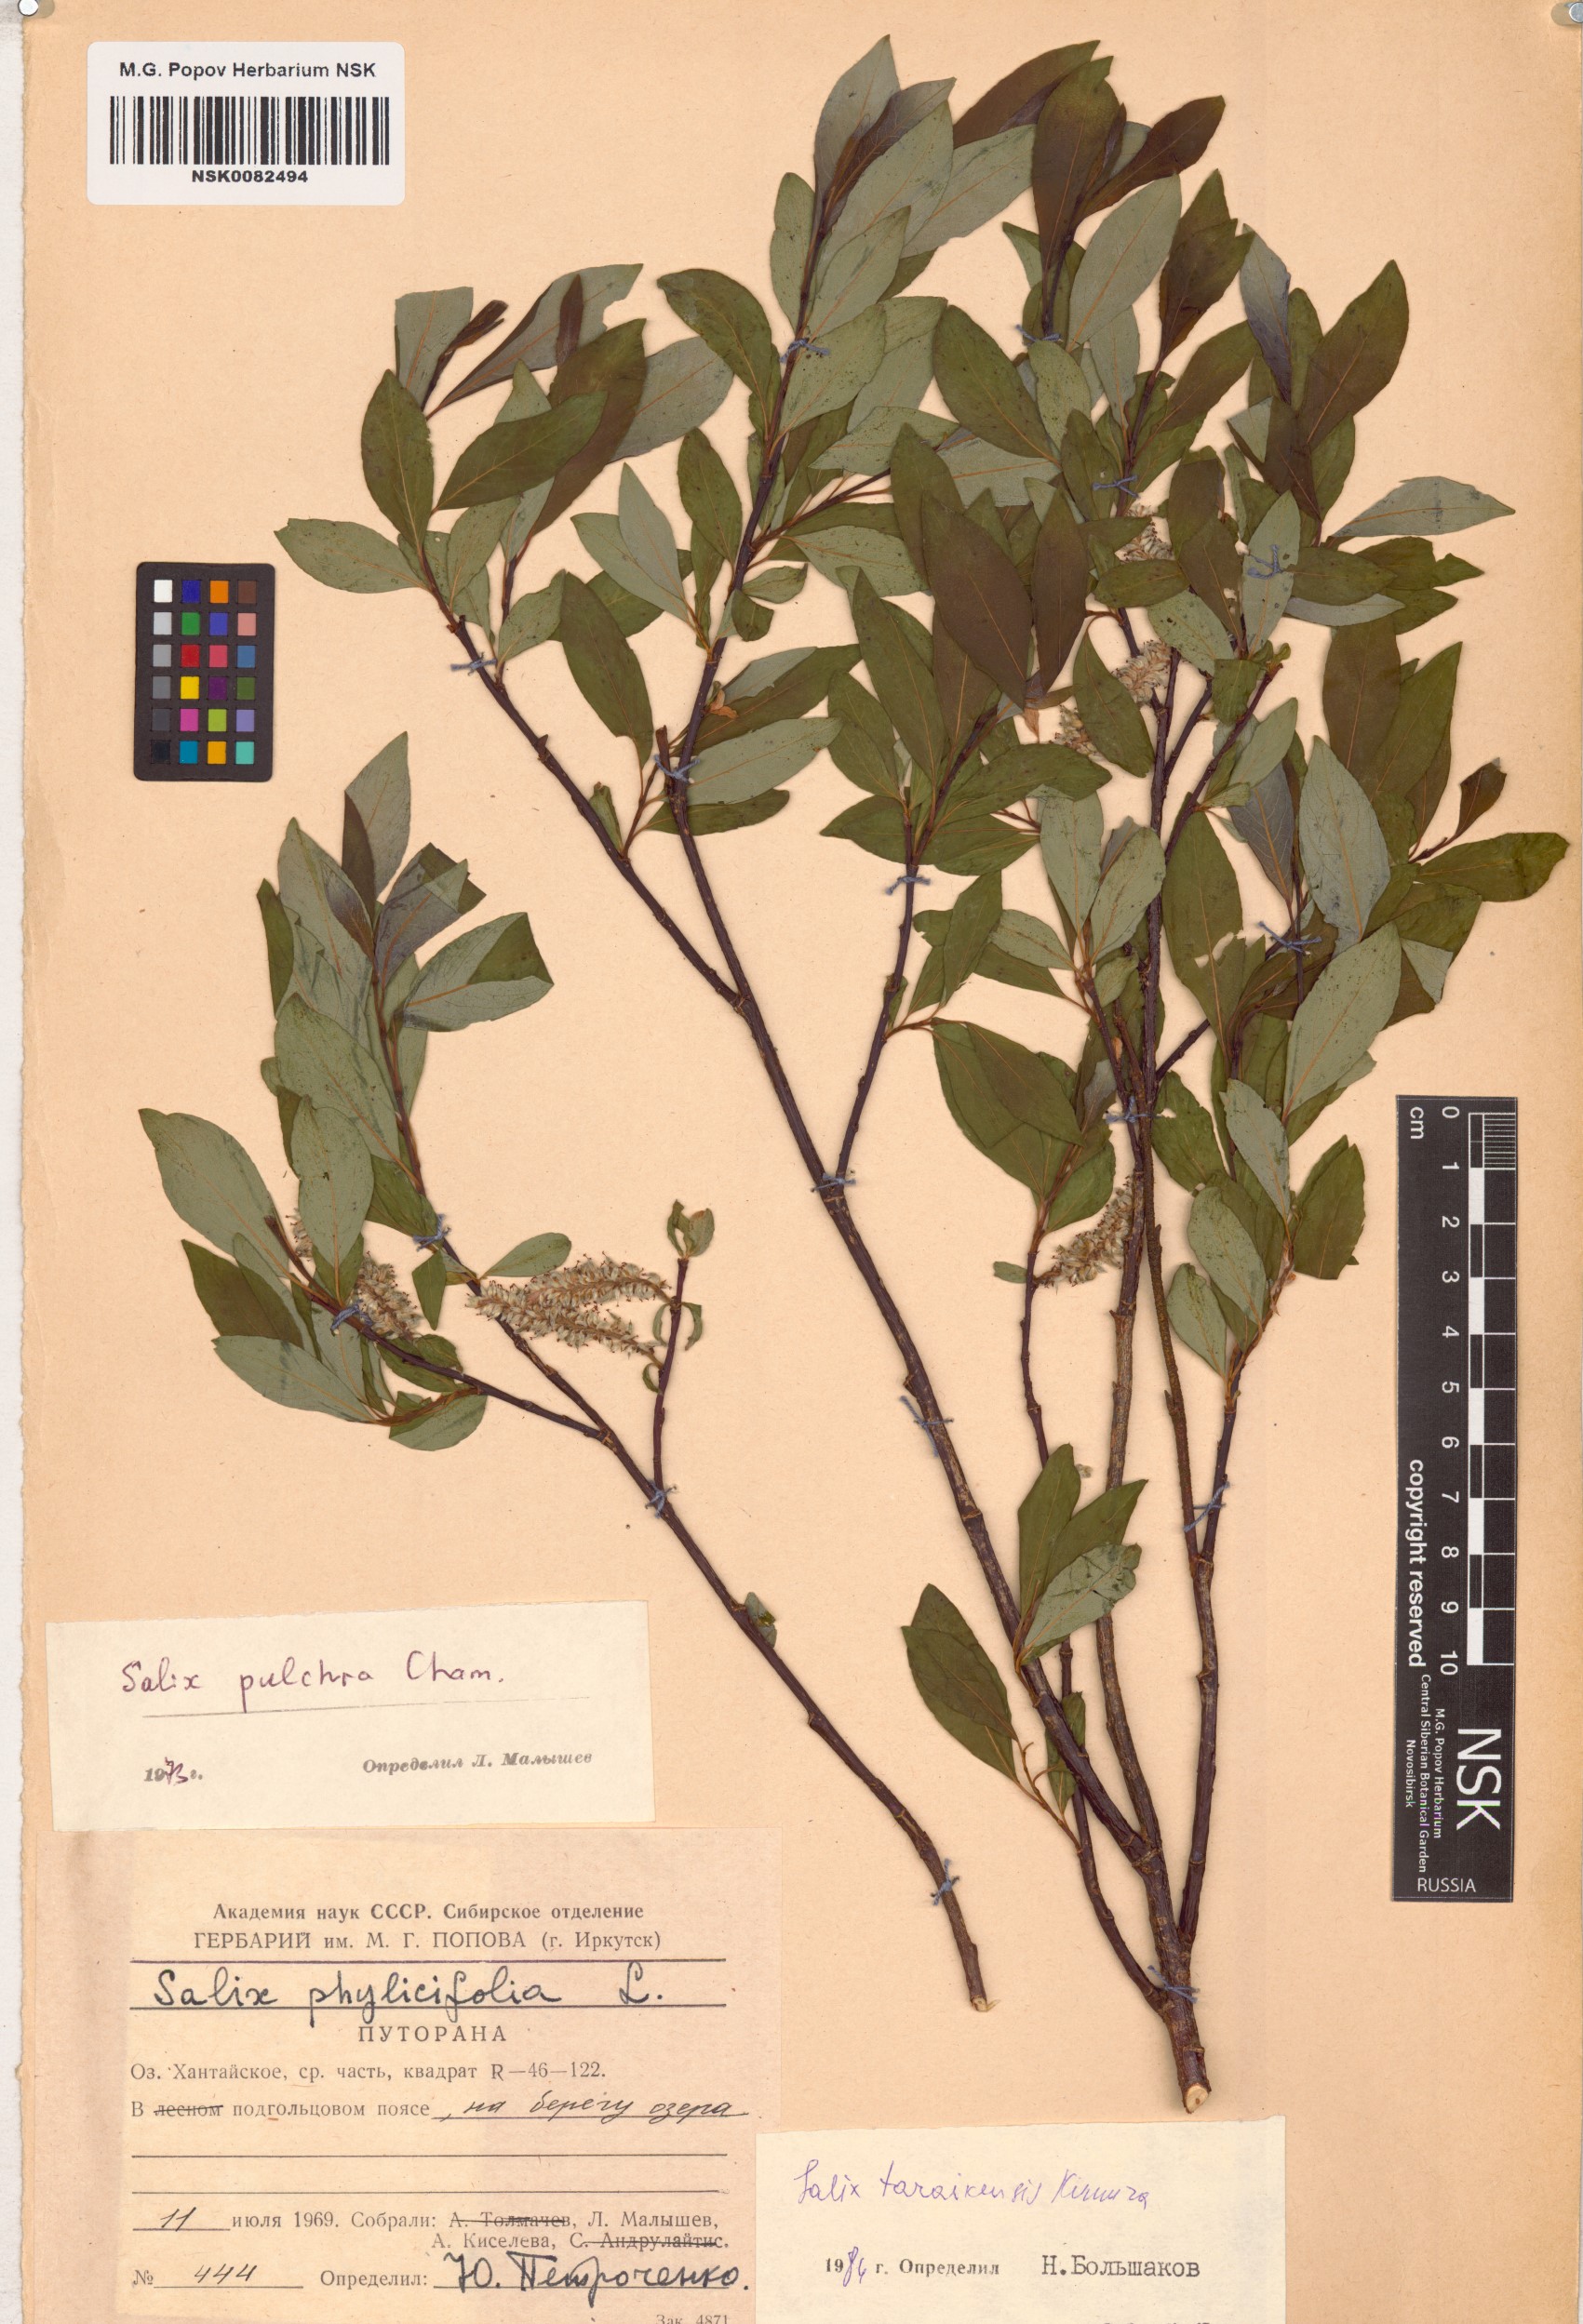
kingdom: Plantae
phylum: Tracheophyta
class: Magnoliopsida
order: Malpighiales
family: Salicaceae
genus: Salix
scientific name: Salix taraikensis
